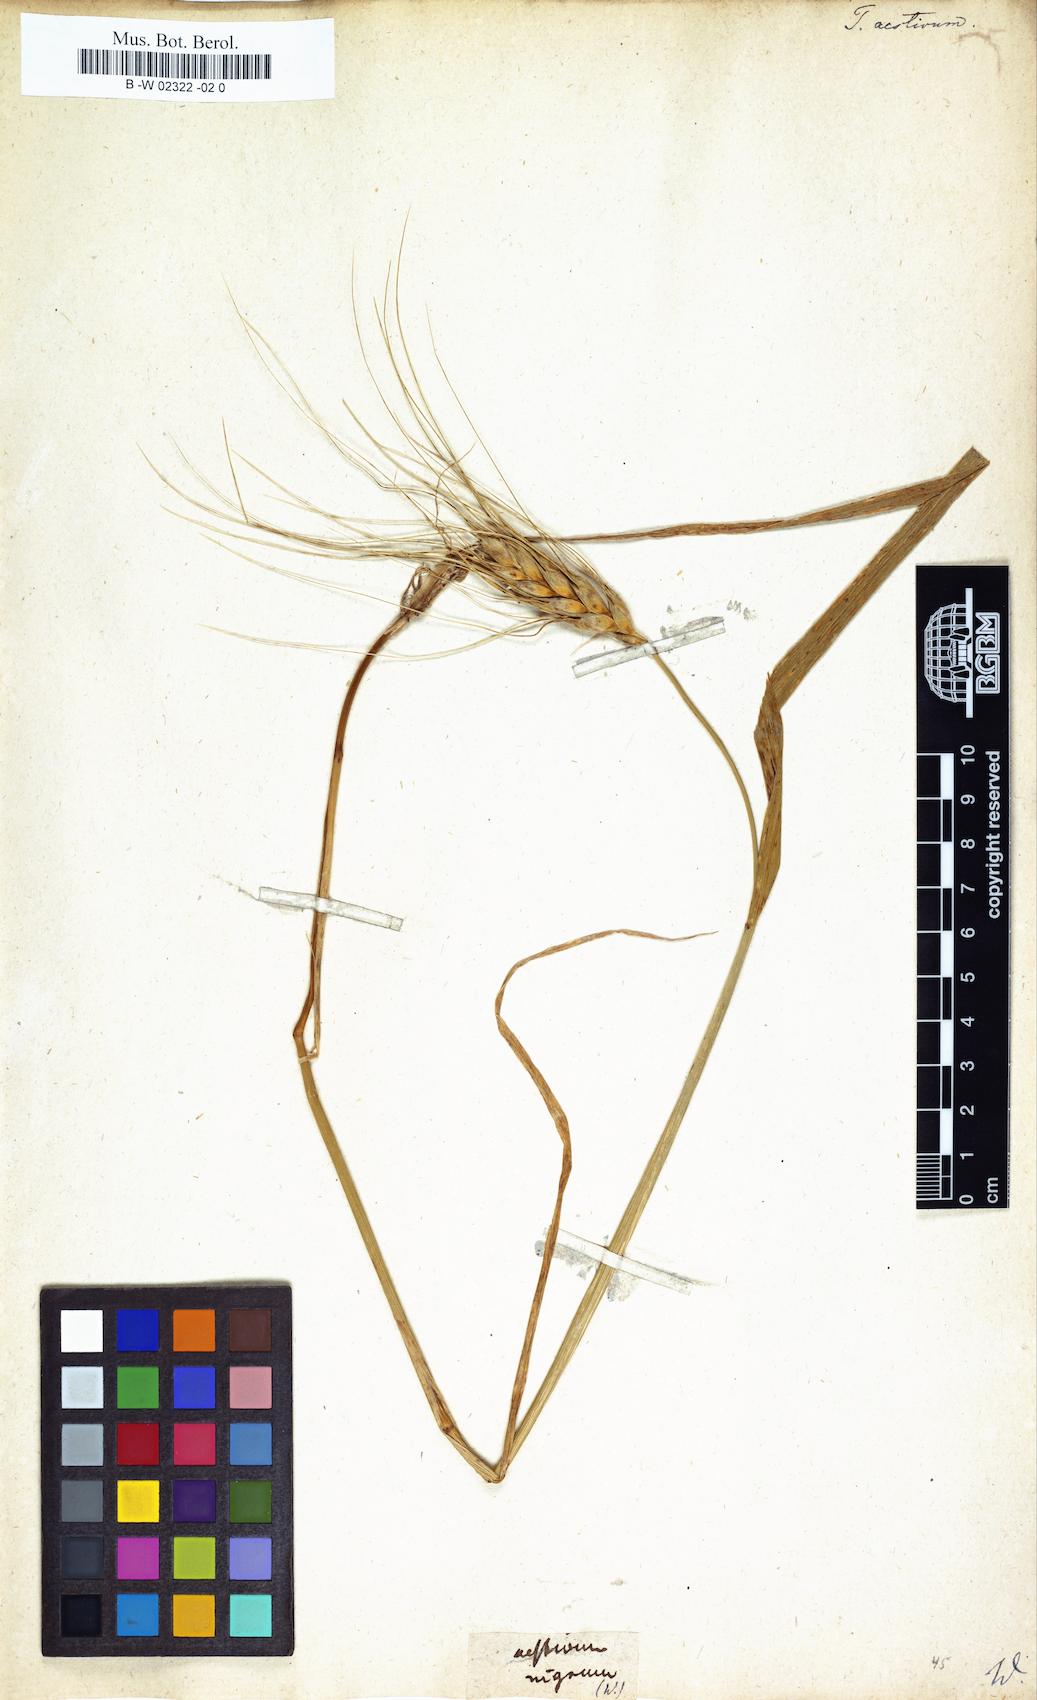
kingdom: Plantae
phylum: Tracheophyta
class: Liliopsida
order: Poales
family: Poaceae
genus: Triticum
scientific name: Triticum aestivum
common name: Common wheat
